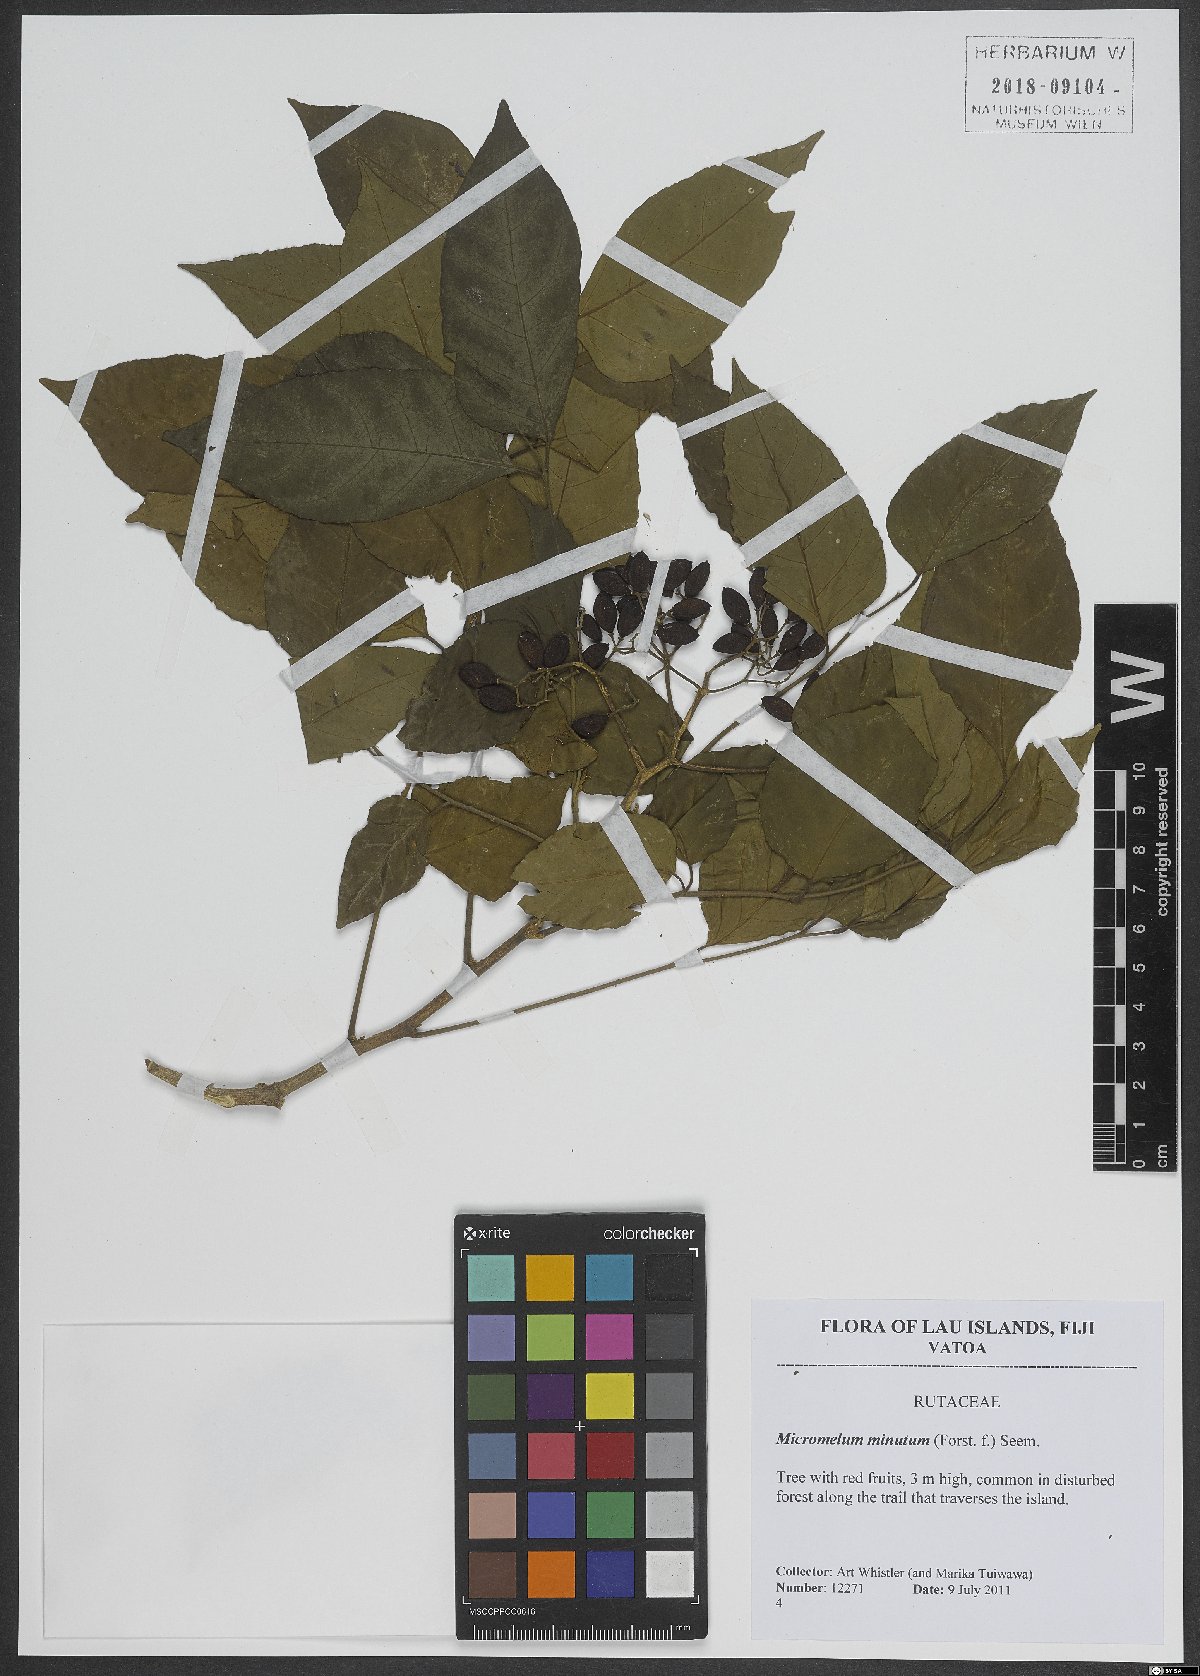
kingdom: Plantae
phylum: Tracheophyta
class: Magnoliopsida
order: Sapindales
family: Rutaceae
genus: Micromelum
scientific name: Micromelum minutum
